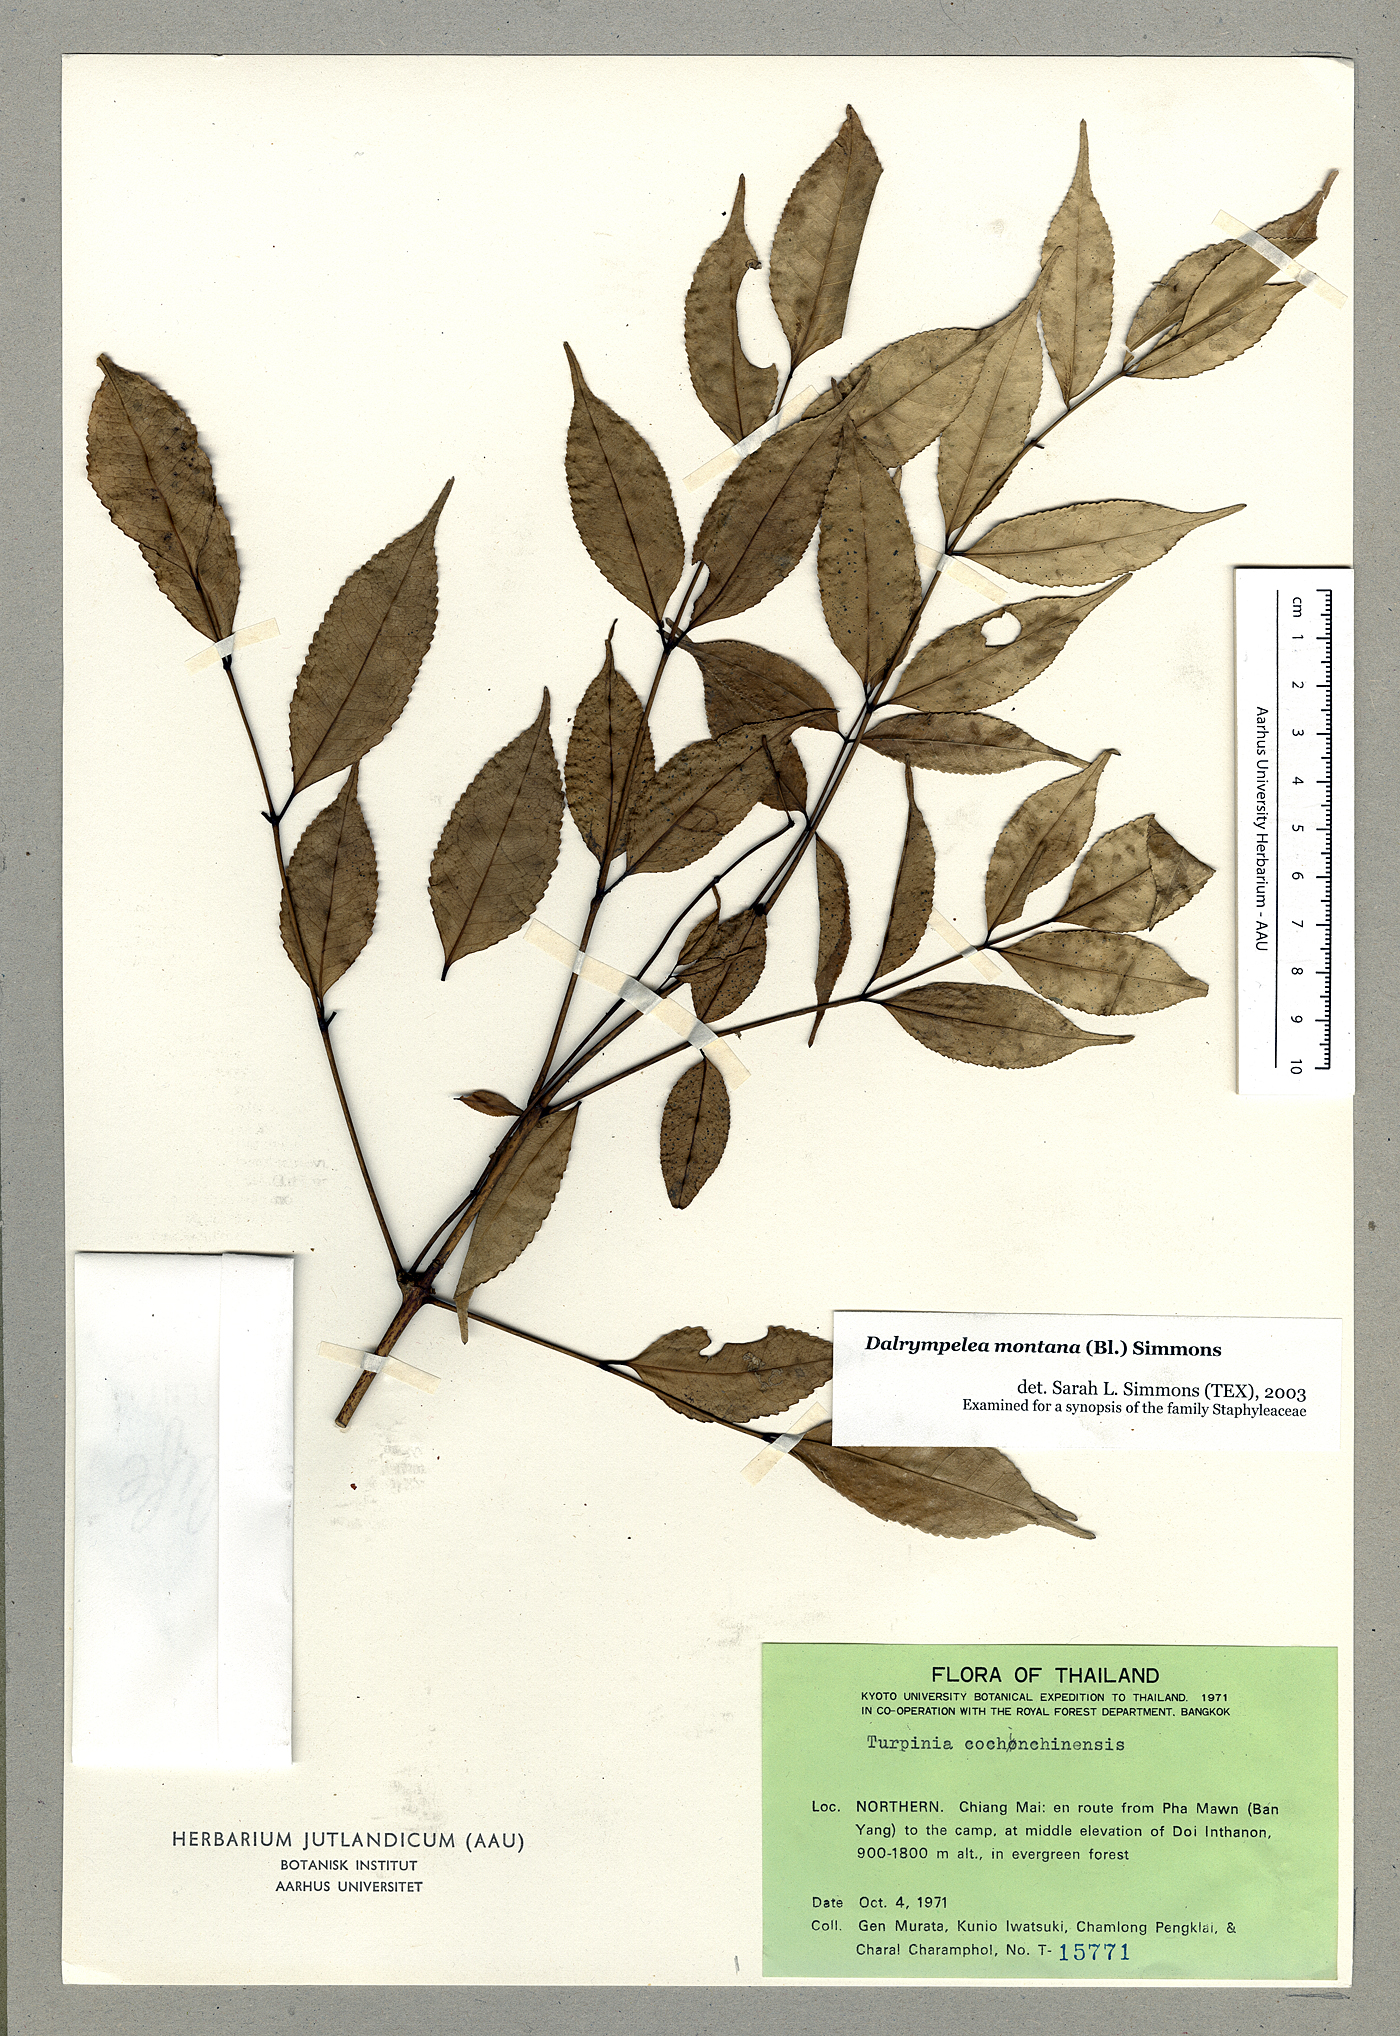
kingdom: Plantae
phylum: Tracheophyta
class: Magnoliopsida
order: Crossosomatales
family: Staphyleaceae
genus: Turpinia
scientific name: Turpinia montana
